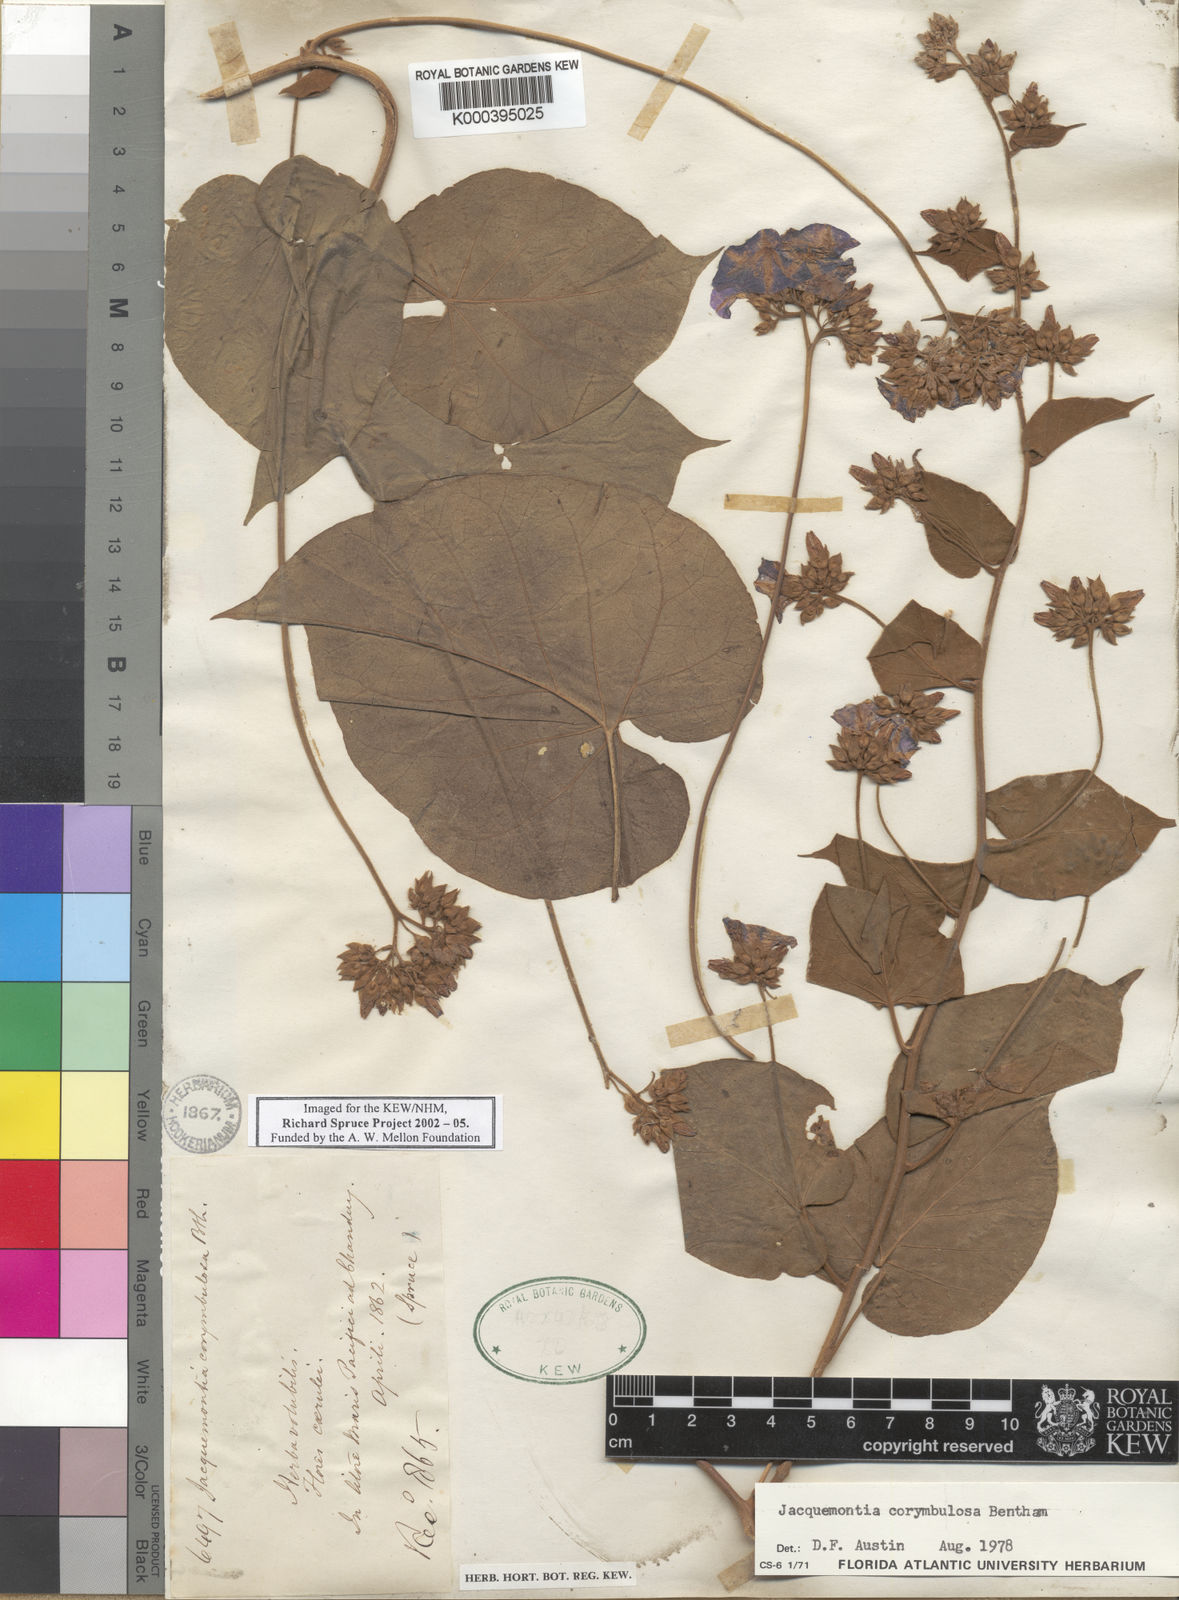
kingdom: Plantae
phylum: Tracheophyta
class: Magnoliopsida
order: Solanales
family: Convolvulaceae
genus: Jacquemontia
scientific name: Jacquemontia corymbulosa
